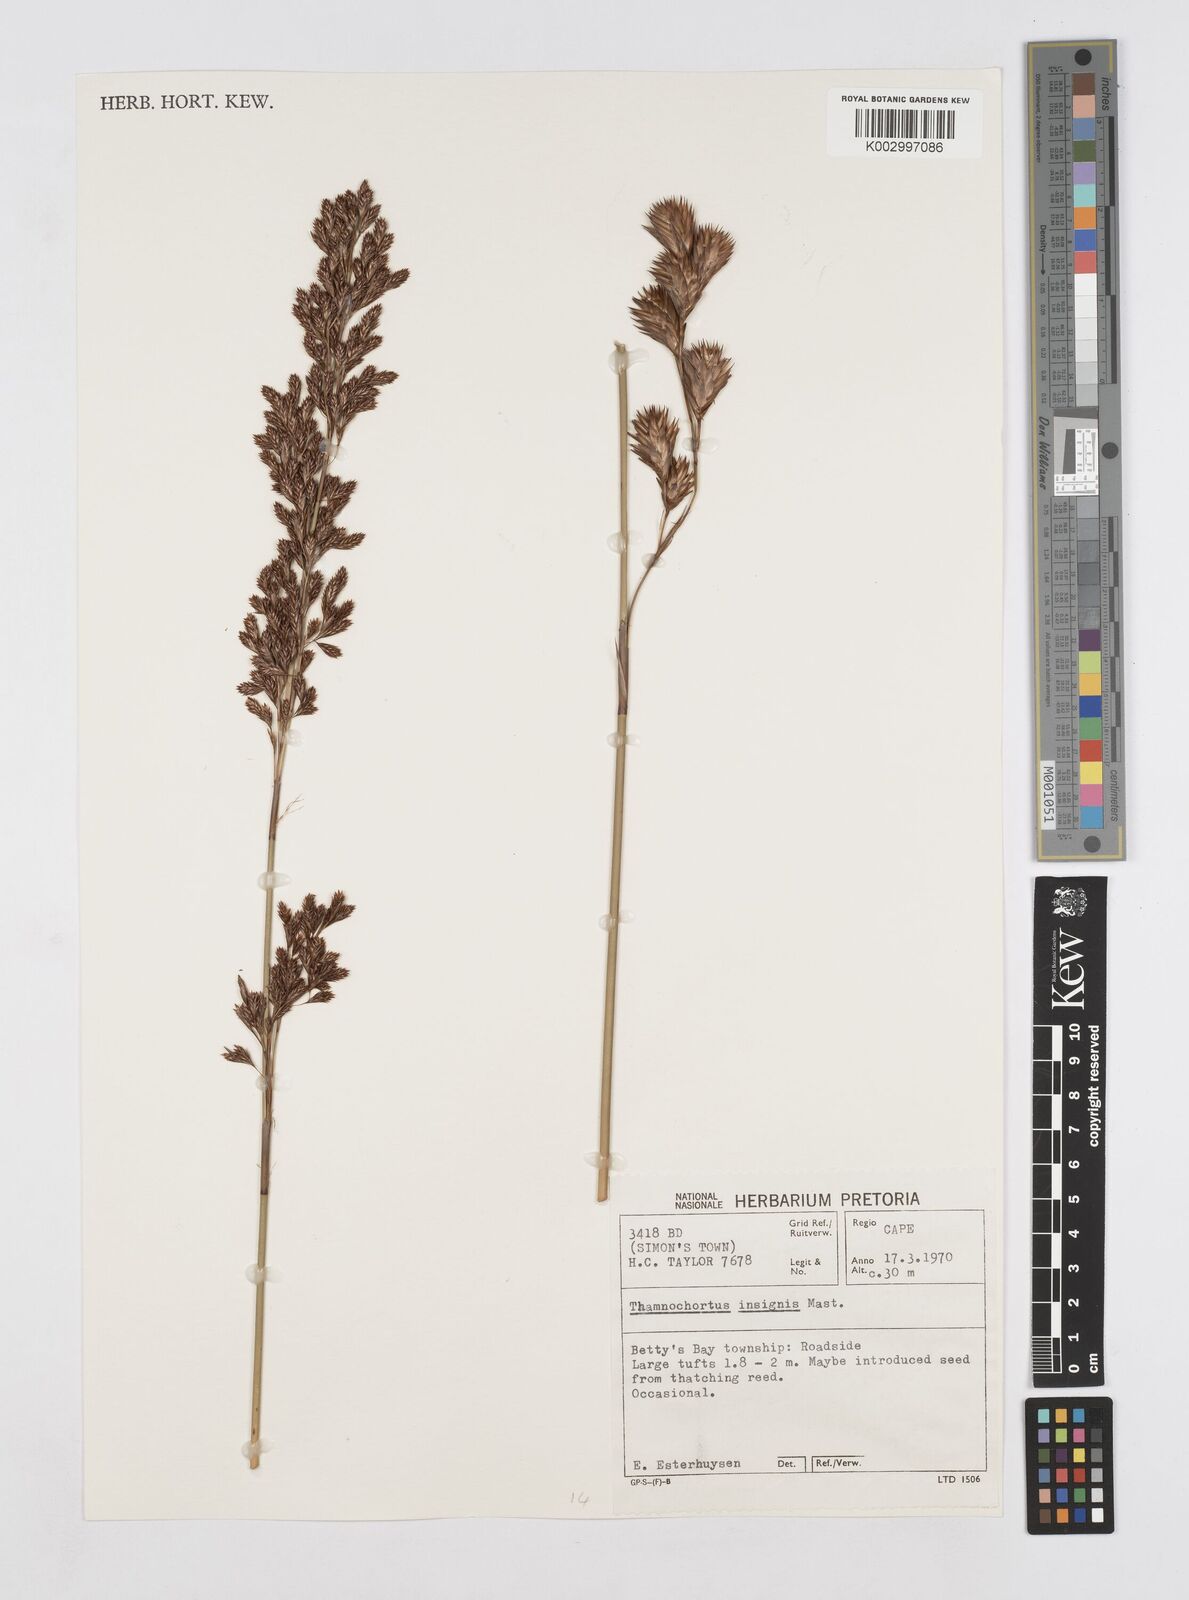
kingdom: Plantae
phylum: Tracheophyta
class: Liliopsida
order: Poales
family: Restionaceae
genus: Thamnochortus
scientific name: Thamnochortus insignis
